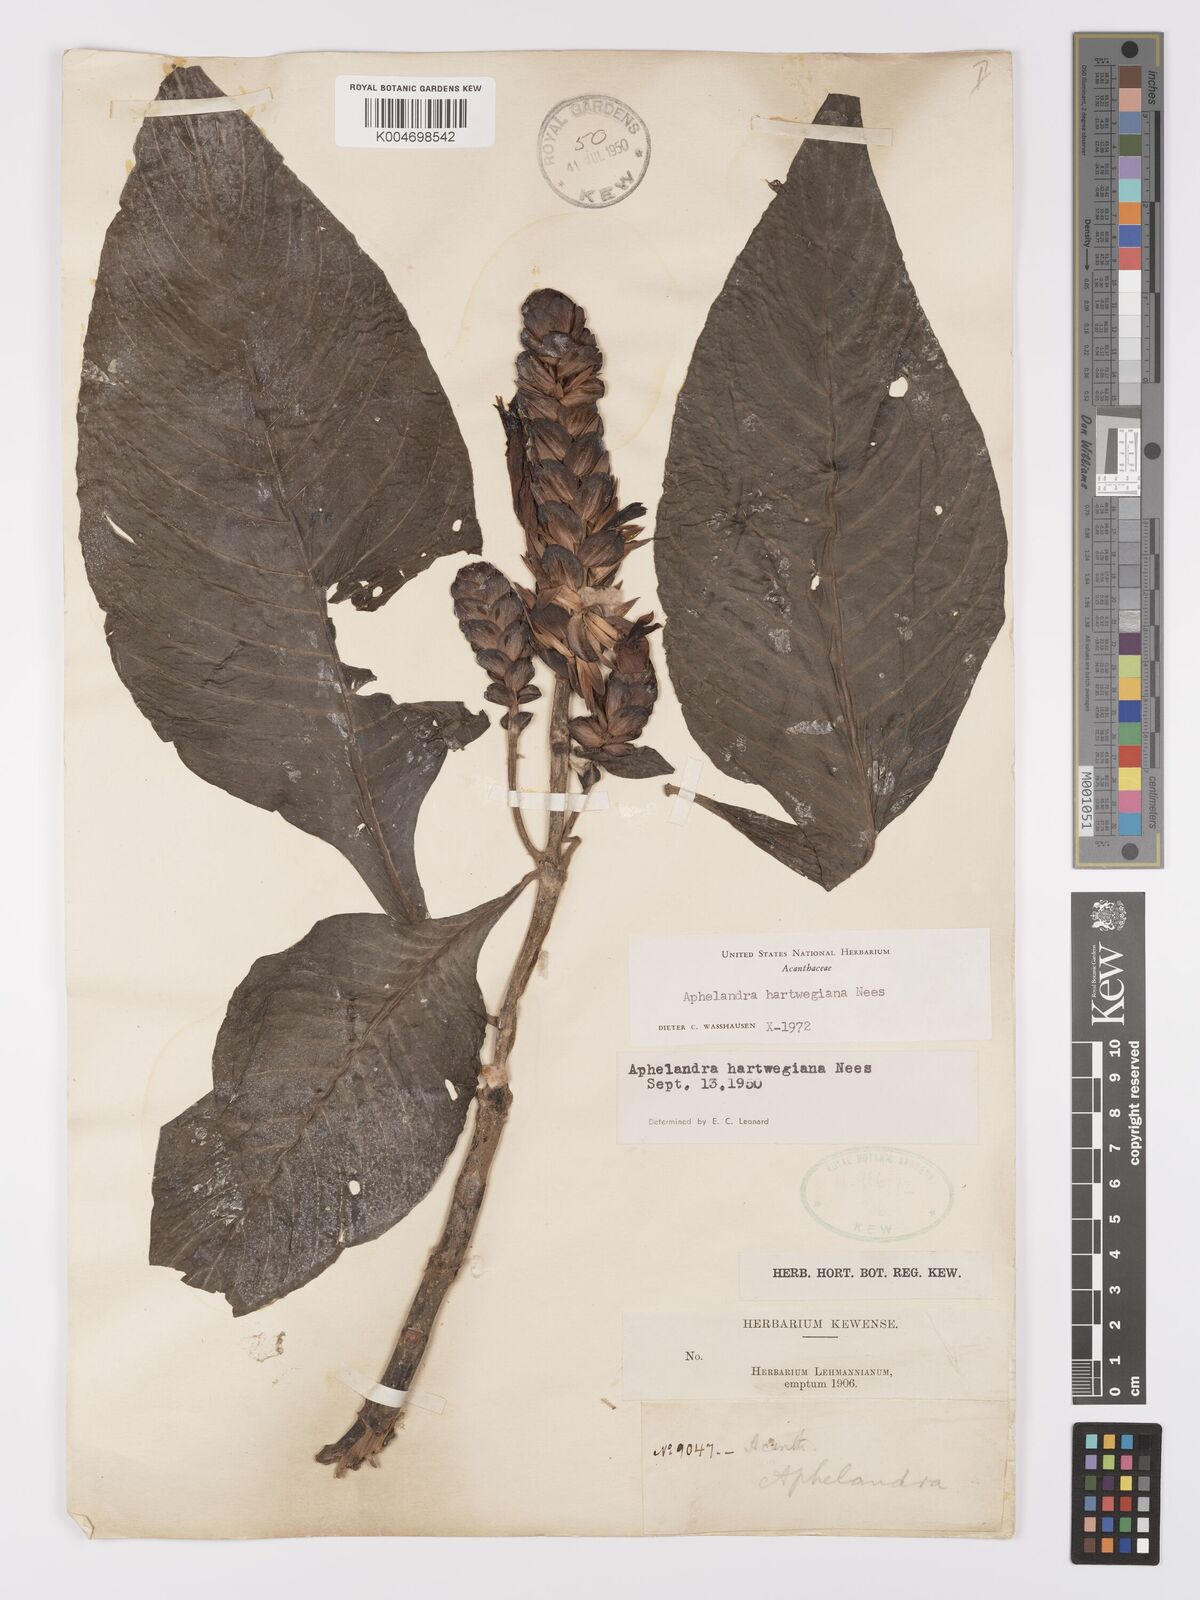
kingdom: Plantae
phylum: Tracheophyta
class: Magnoliopsida
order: Lamiales
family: Acanthaceae
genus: Aphelandra
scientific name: Aphelandra hartwegiana
